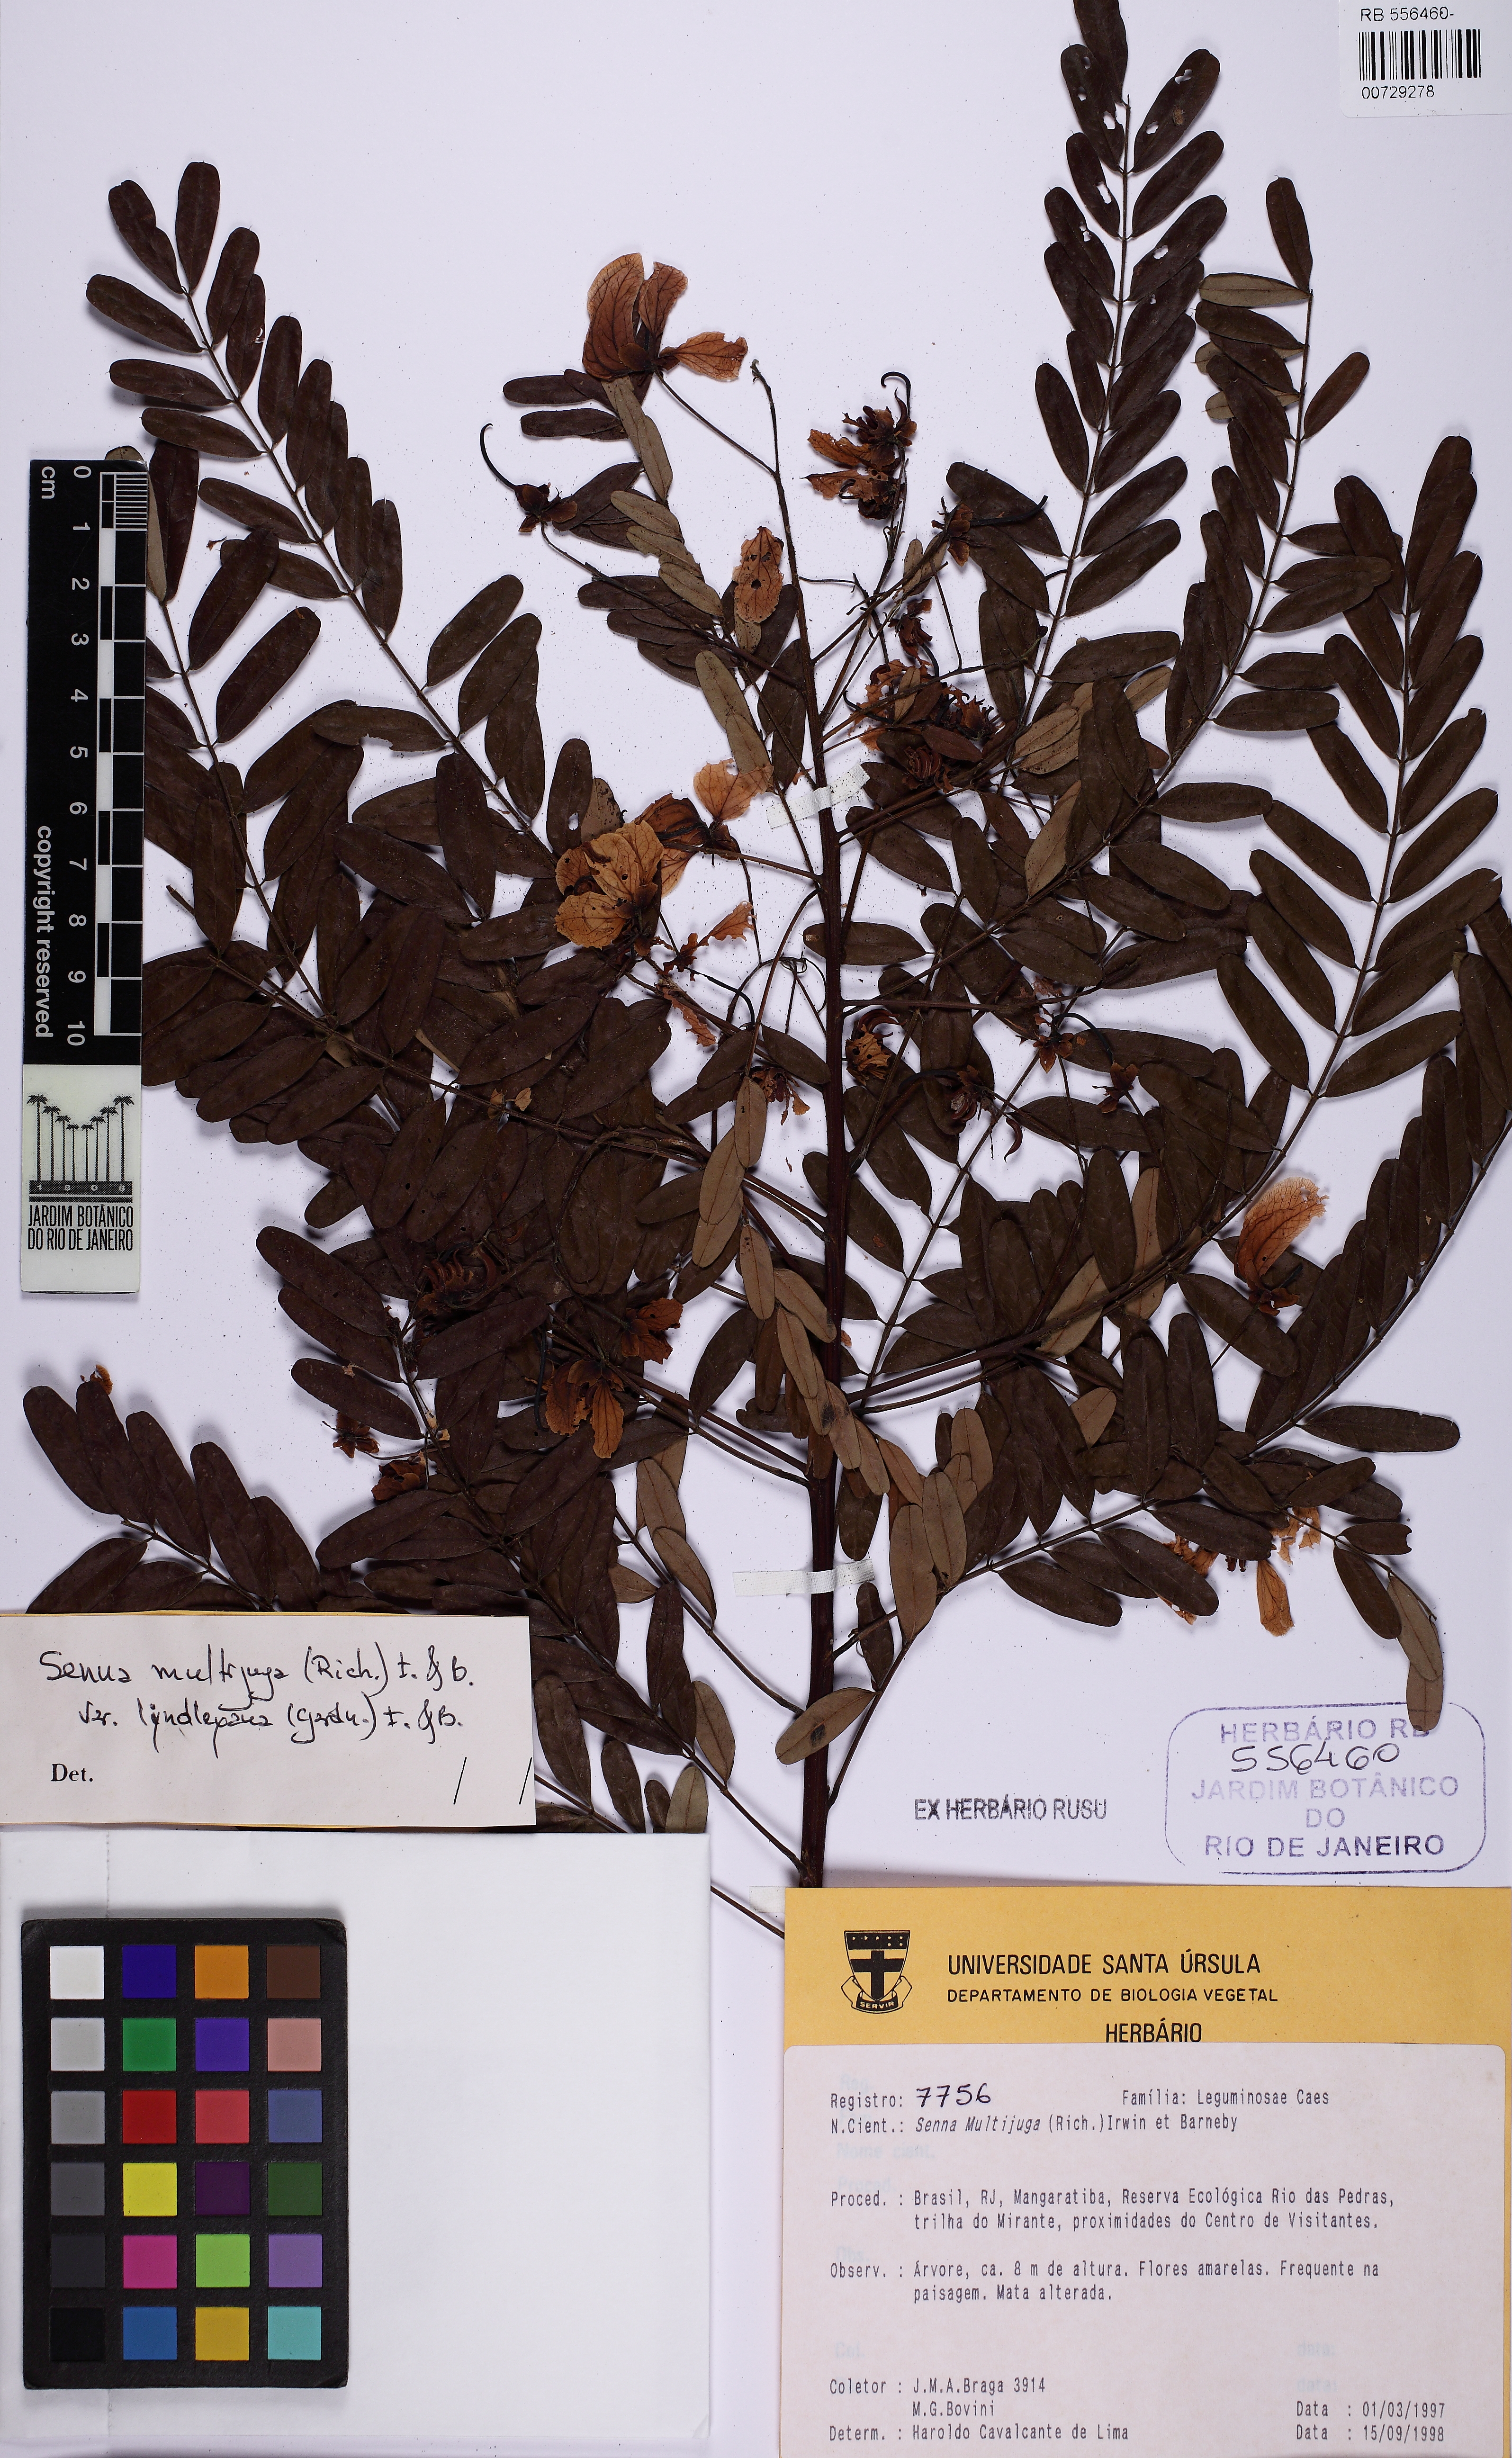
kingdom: Plantae
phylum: Tracheophyta
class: Magnoliopsida
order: Fabales
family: Fabaceae
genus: Senna
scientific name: Senna multijuga
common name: False sicklepod
